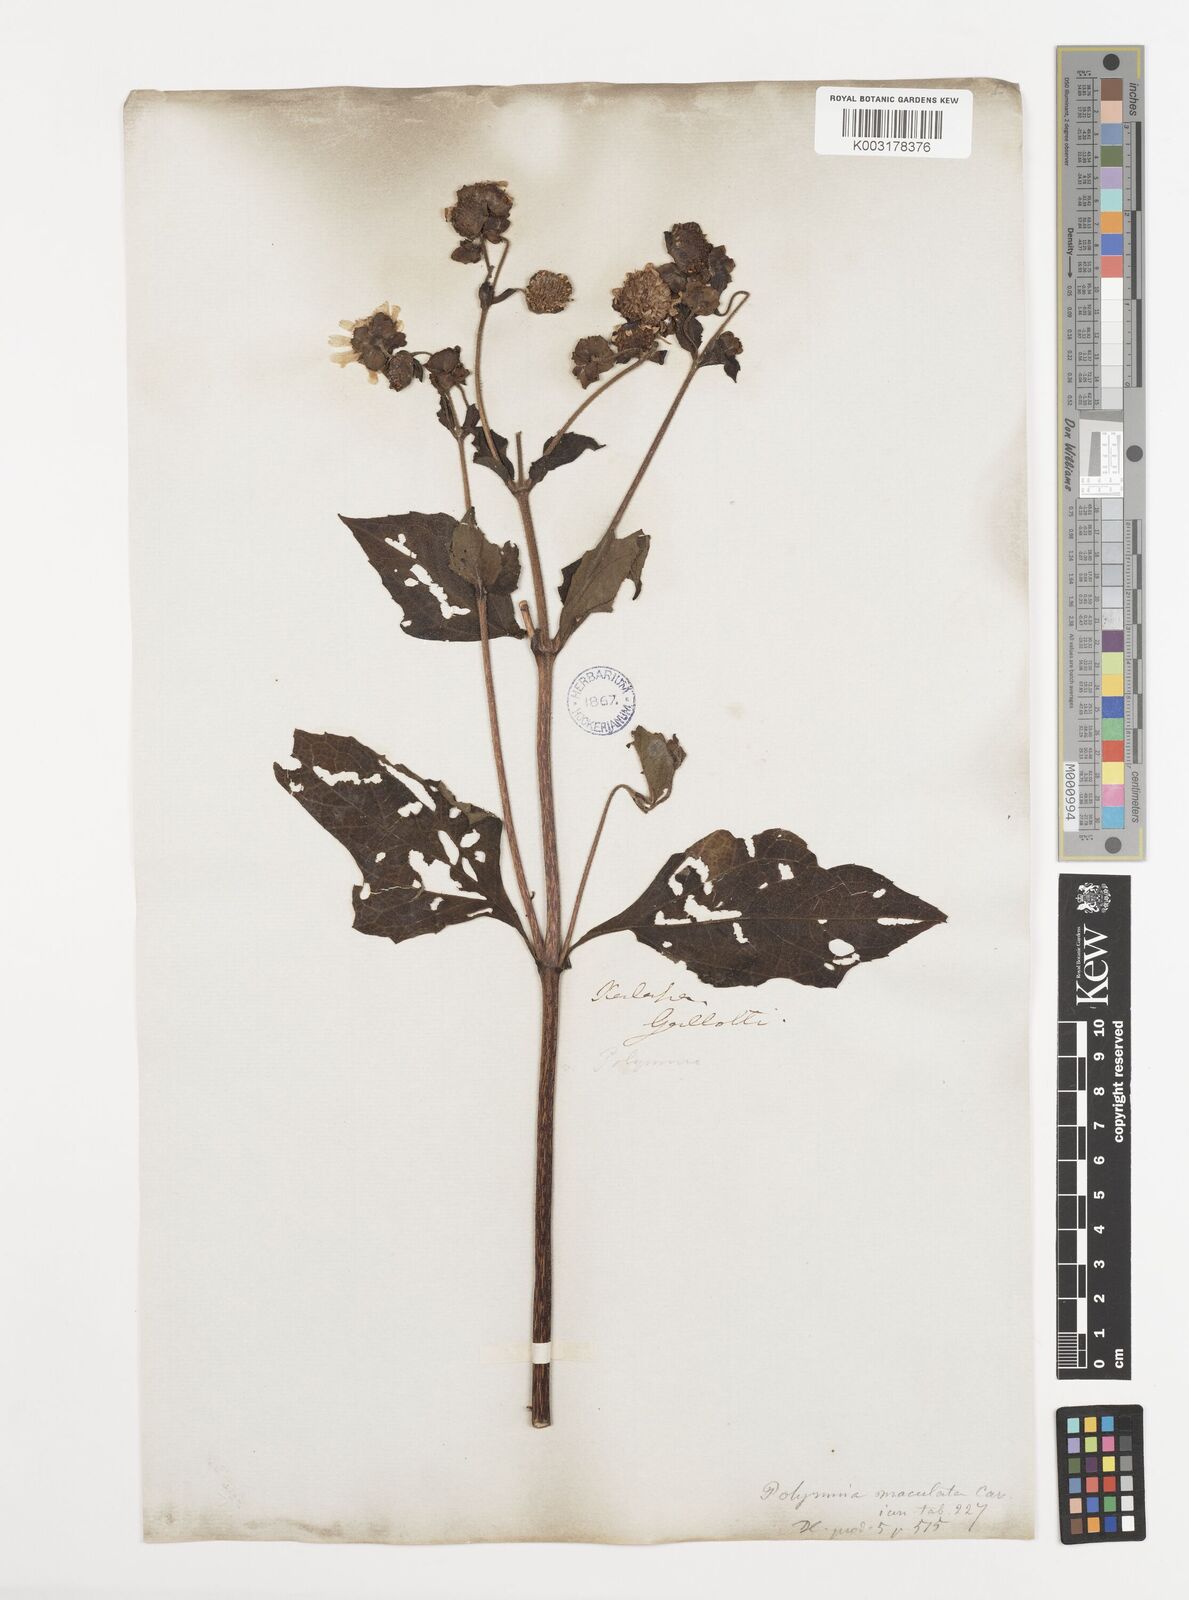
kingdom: Plantae
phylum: Tracheophyta
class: Magnoliopsida
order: Asterales
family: Asteraceae
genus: Smallanthus
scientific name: Smallanthus maculatus
